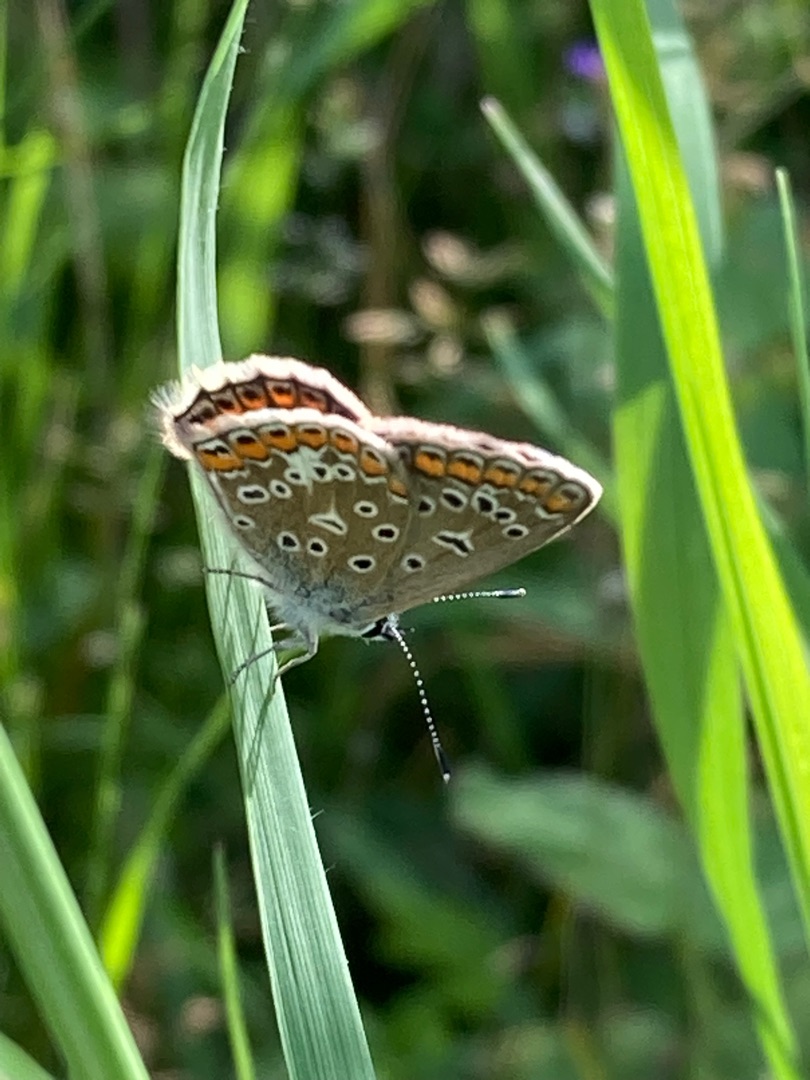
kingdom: Animalia
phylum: Arthropoda
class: Insecta
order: Lepidoptera
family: Lycaenidae
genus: Polyommatus
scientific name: Polyommatus icarus
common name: Almindelig blåfugl
